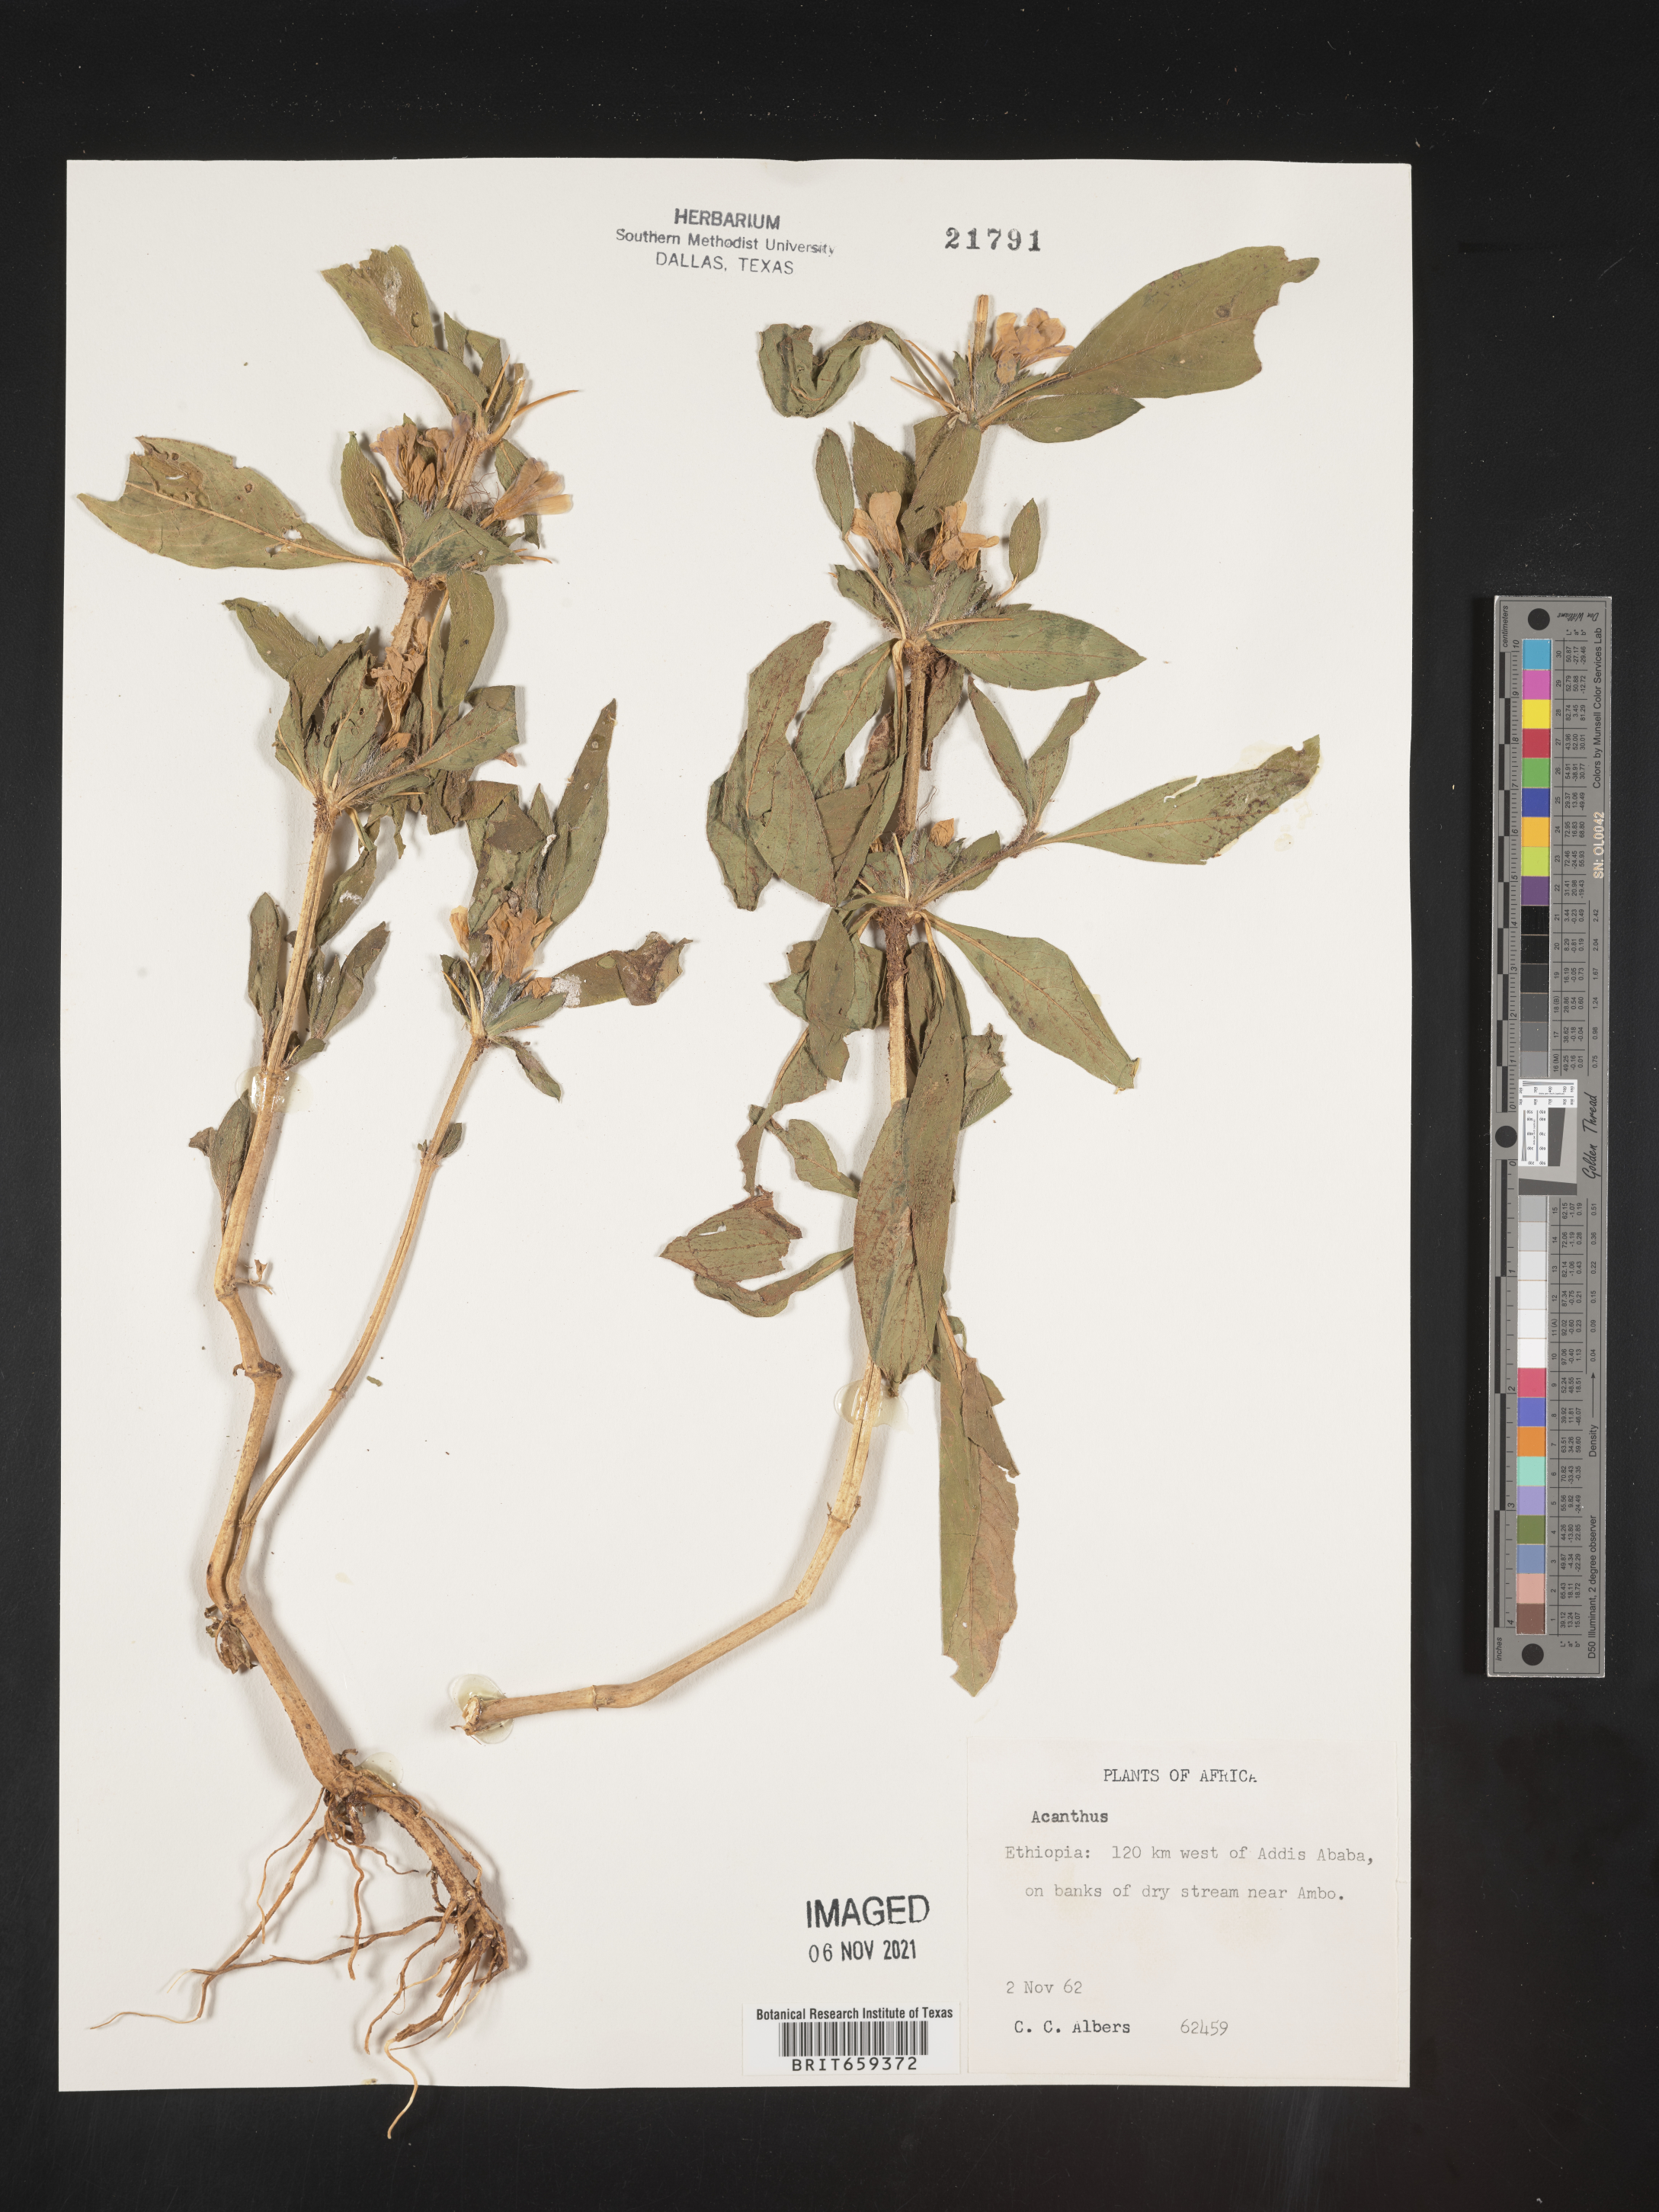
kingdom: Plantae
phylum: Tracheophyta
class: Magnoliopsida
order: Lamiales
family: Acanthaceae
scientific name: Acanthaceae
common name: Acanthaceae
